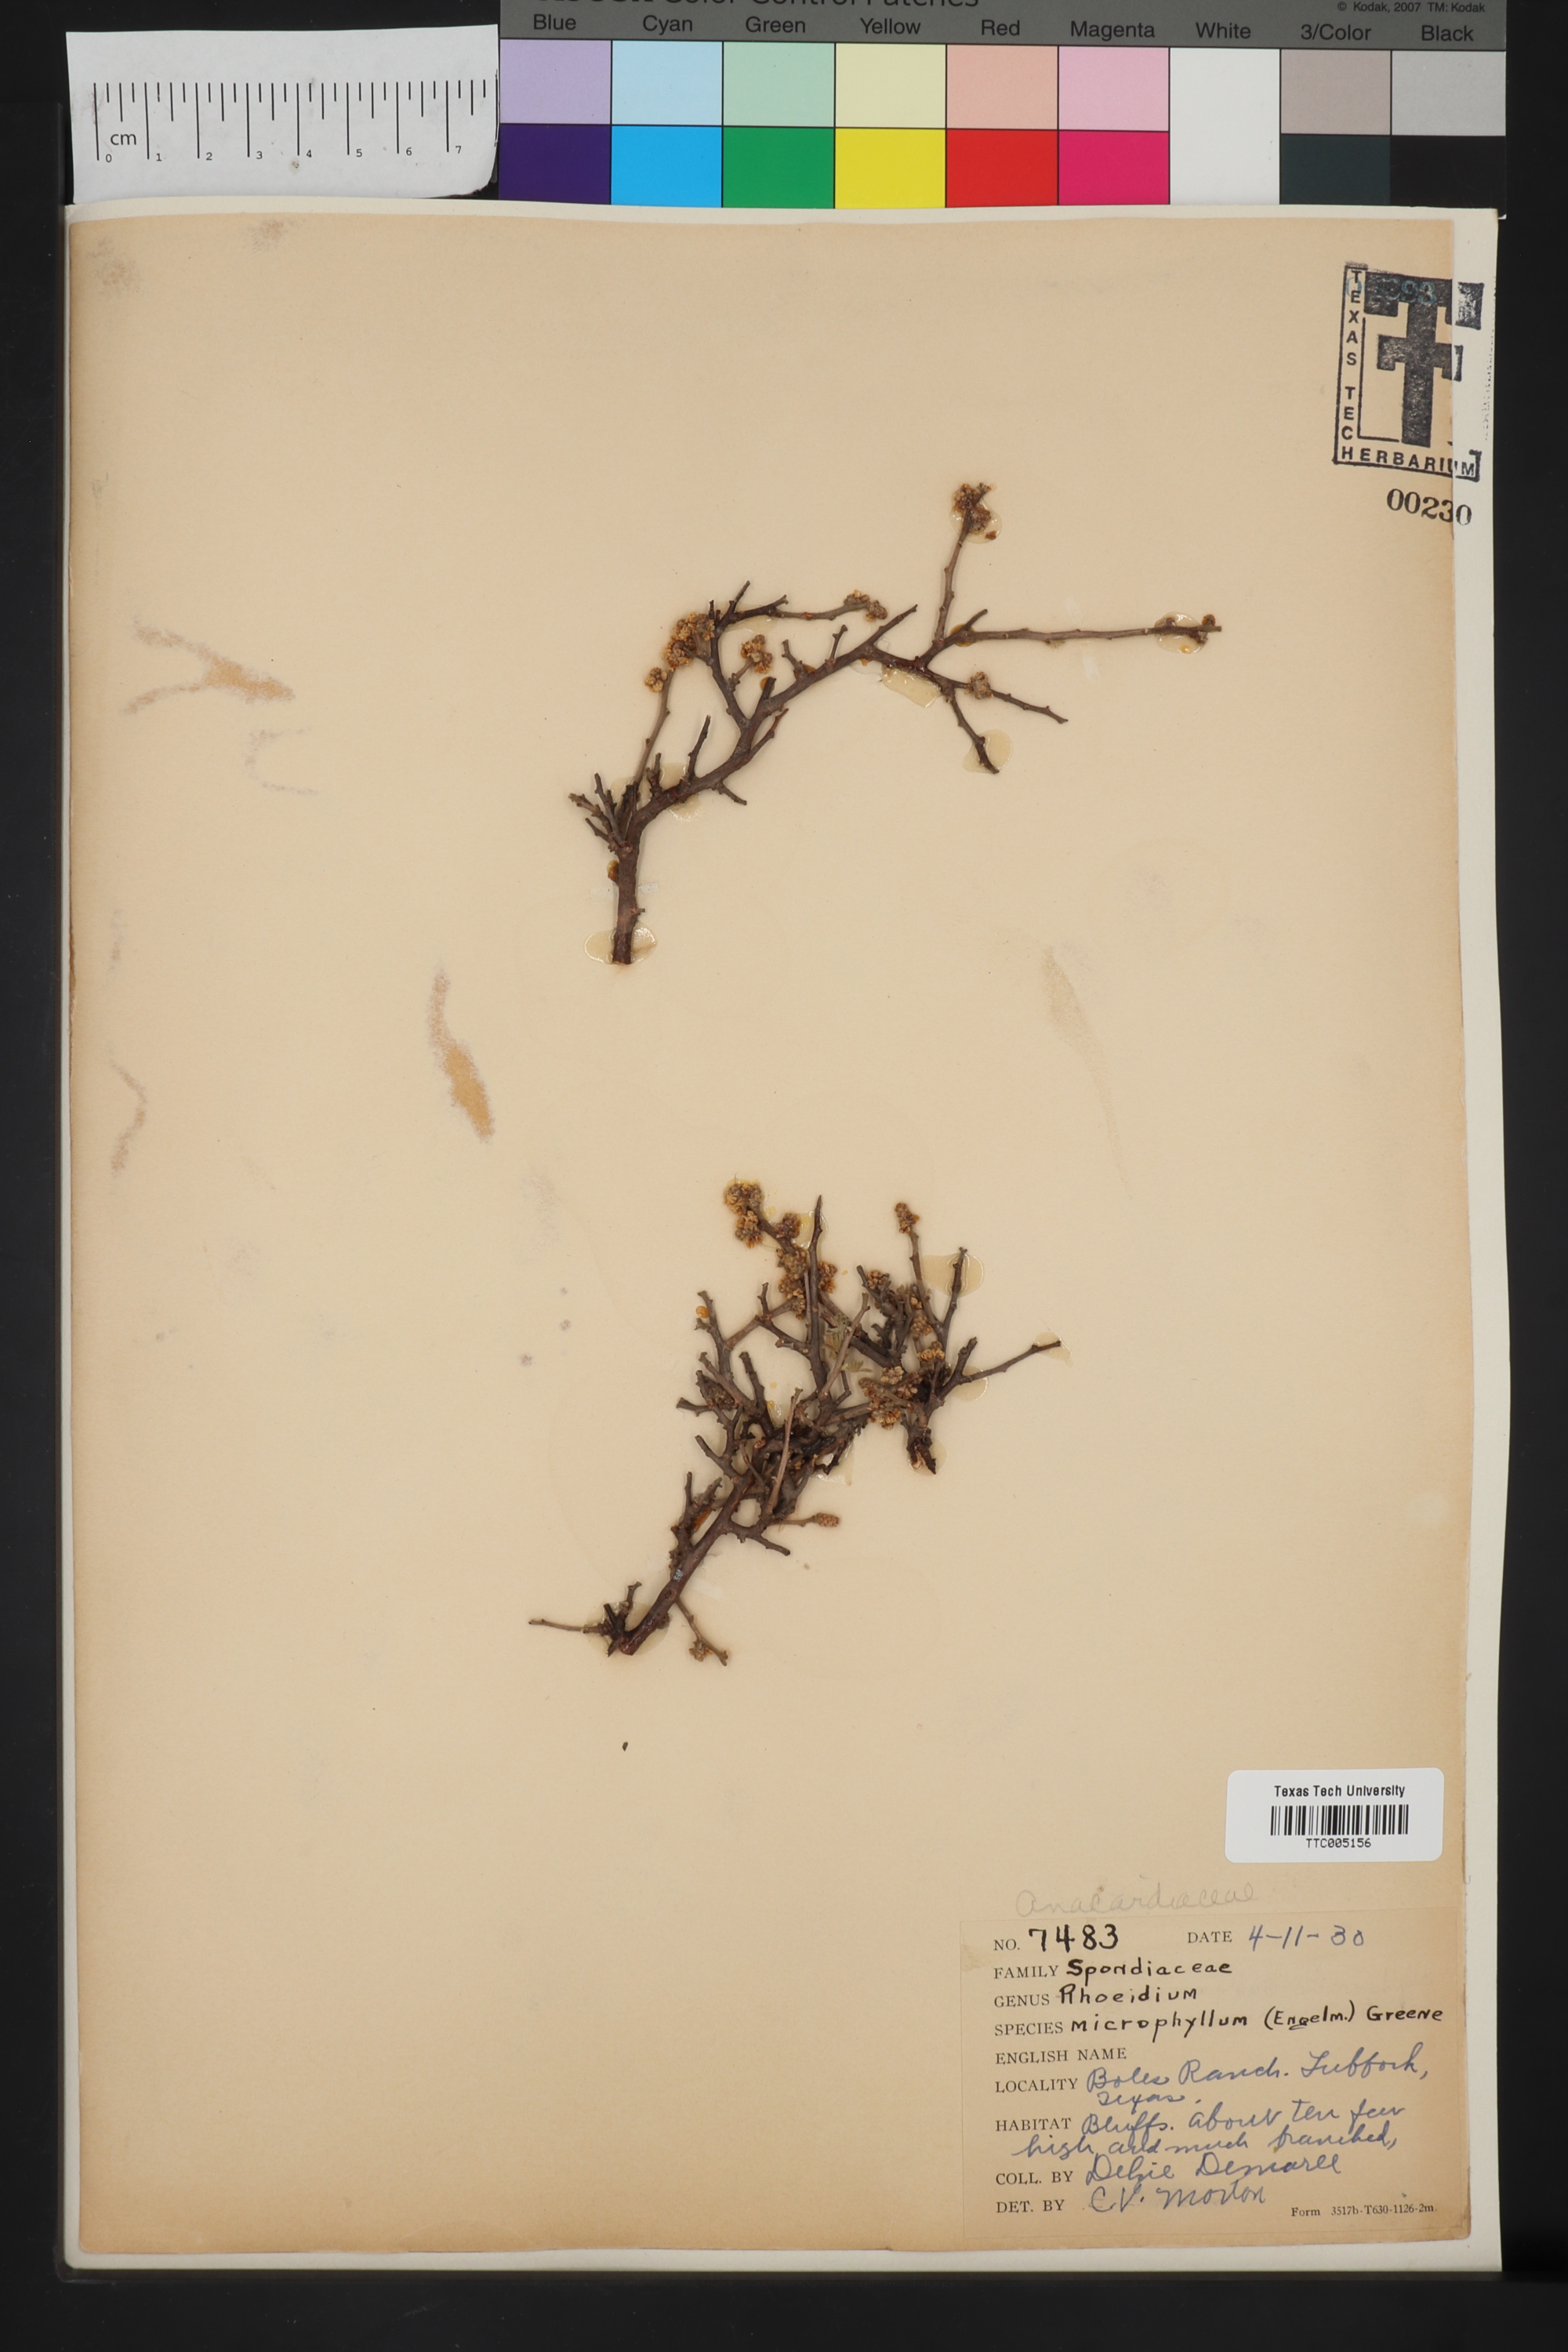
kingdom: Plantae
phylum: Tracheophyta
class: Magnoliopsida
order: Sapindales
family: Anacardiaceae
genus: Rhus
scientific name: Rhus microphylla
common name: Desert sumac
